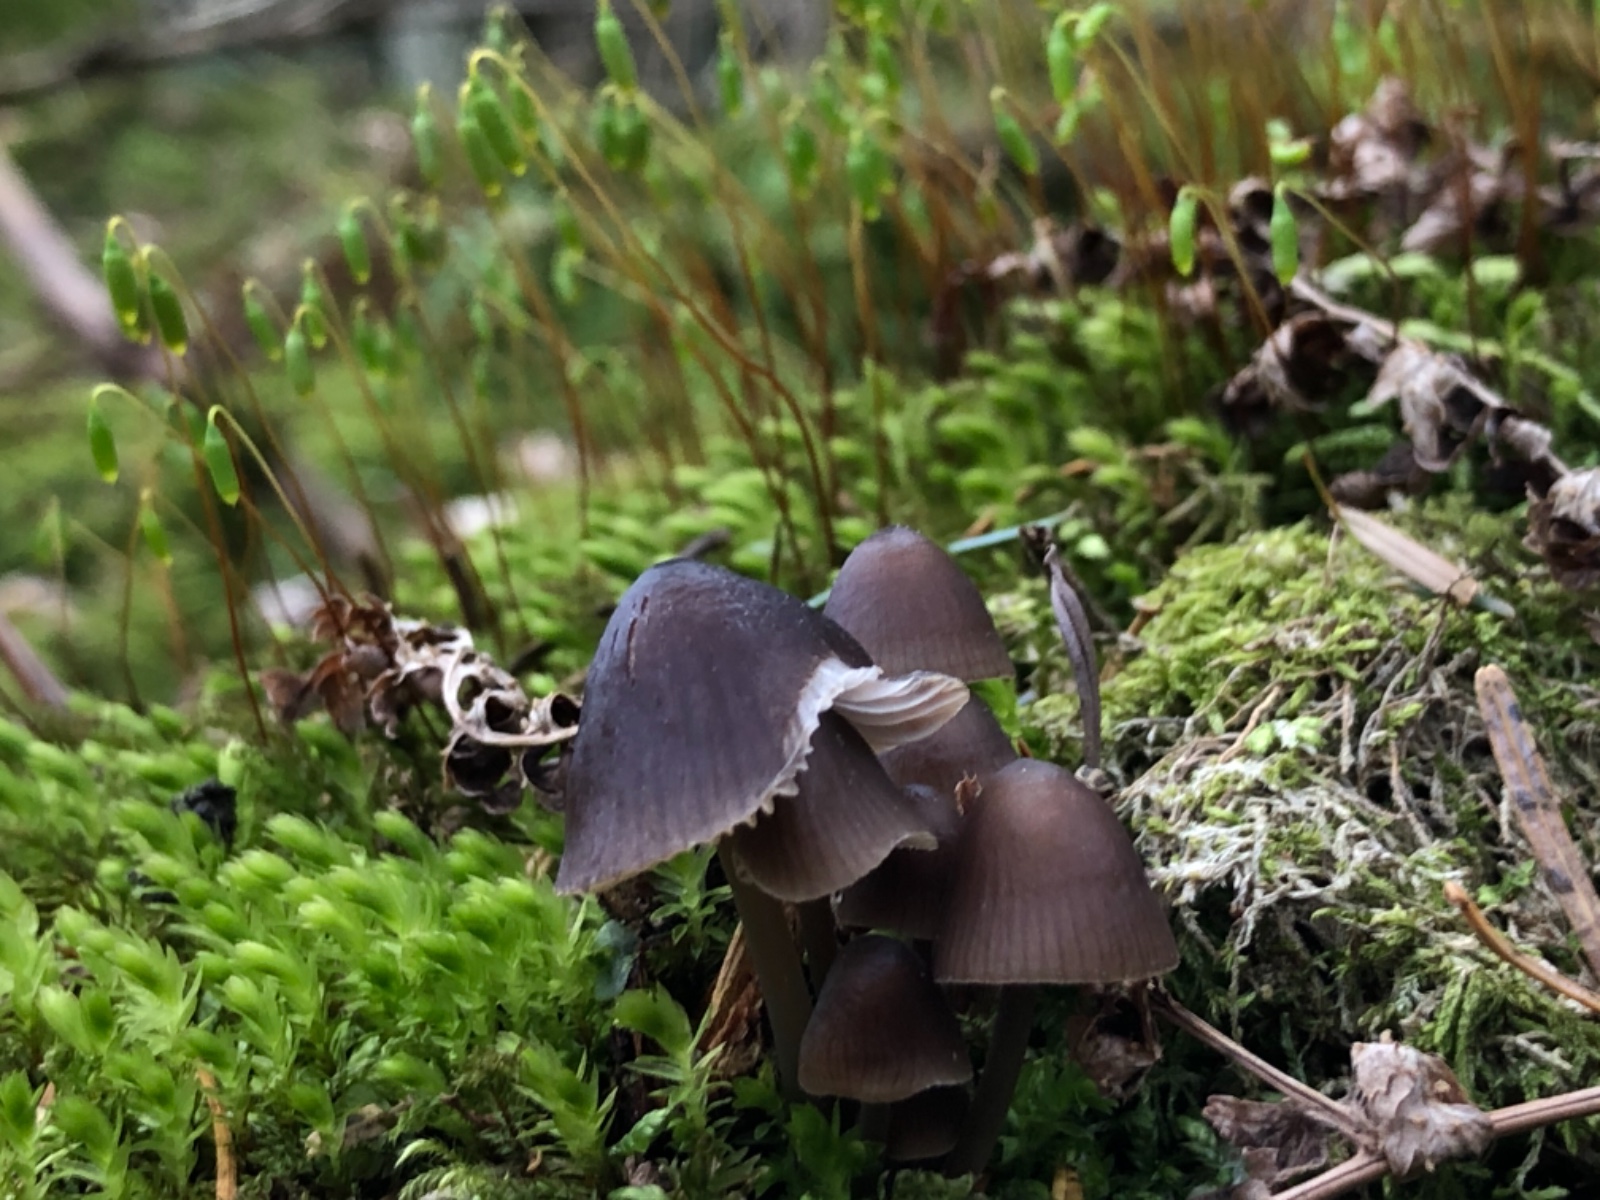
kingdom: Fungi
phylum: Basidiomycota
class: Agaricomycetes
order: Agaricales
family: Mycenaceae
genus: Mycena
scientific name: Mycena silvae-nigrae
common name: tidlig huesvamp
